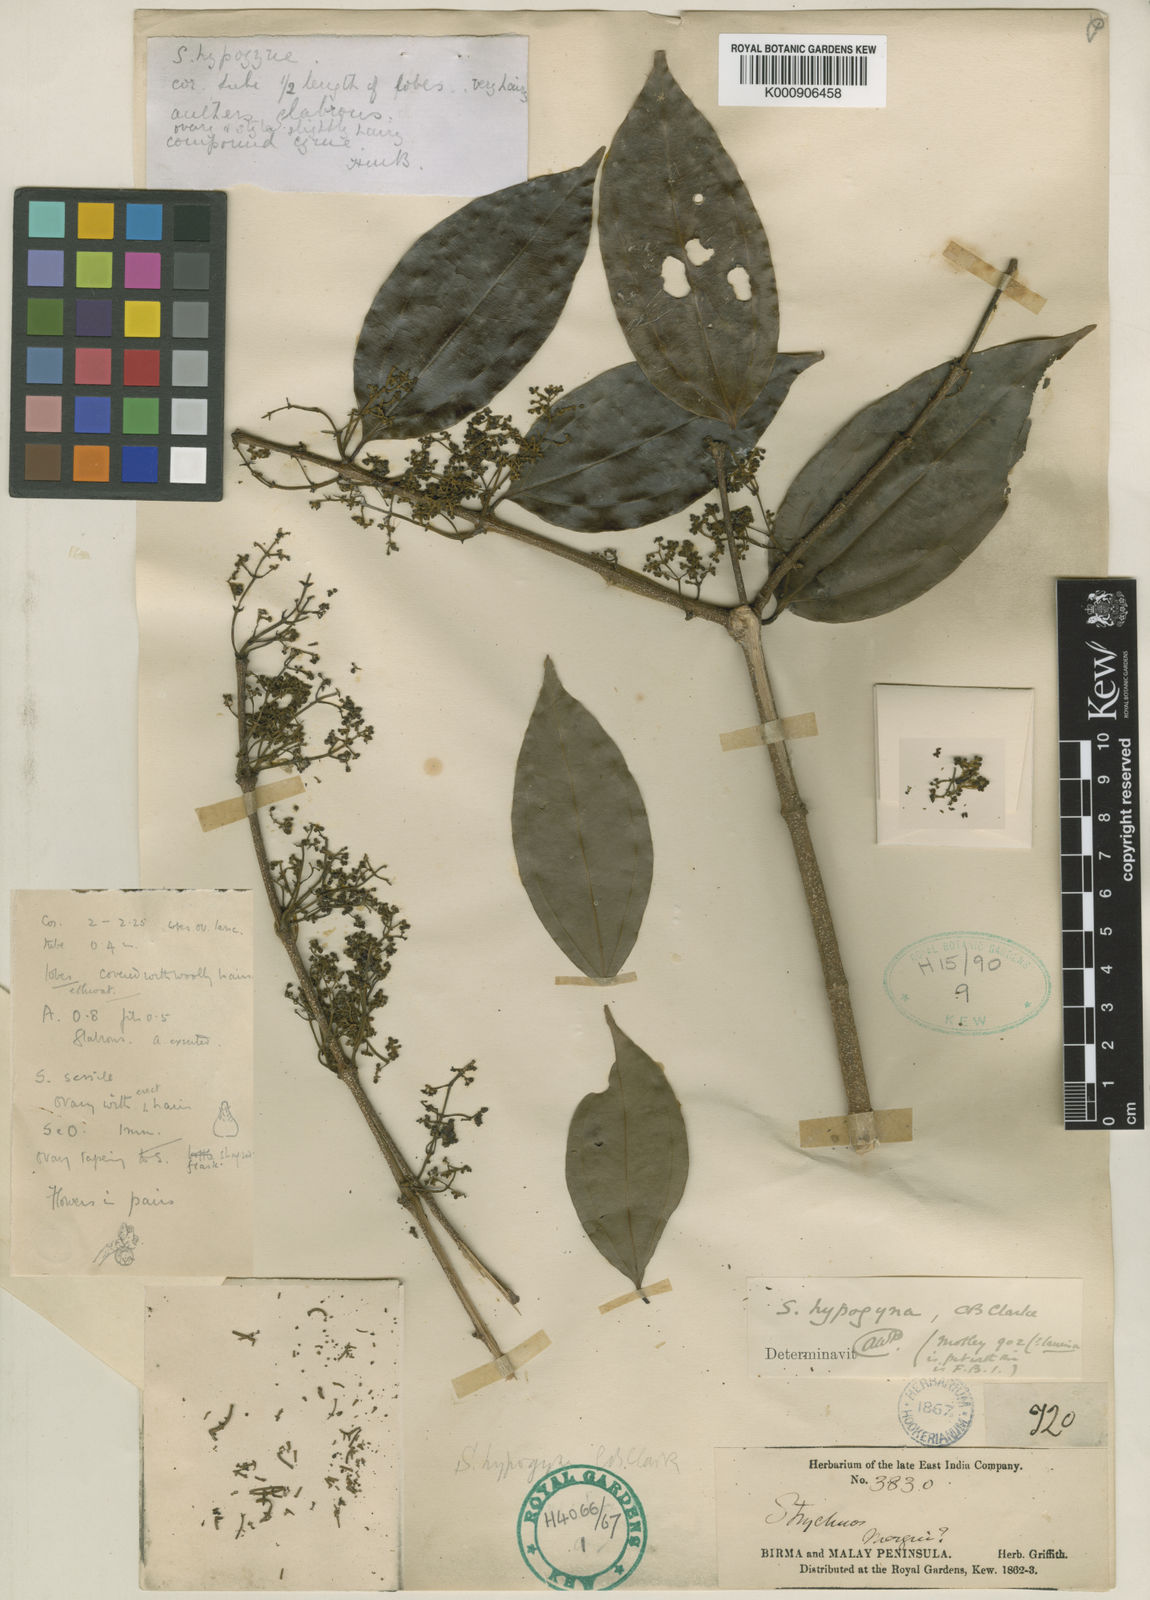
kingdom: Plantae
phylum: Tracheophyta
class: Magnoliopsida
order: Gentianales
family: Loganiaceae
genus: Strychnos
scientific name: Strychnos minor
